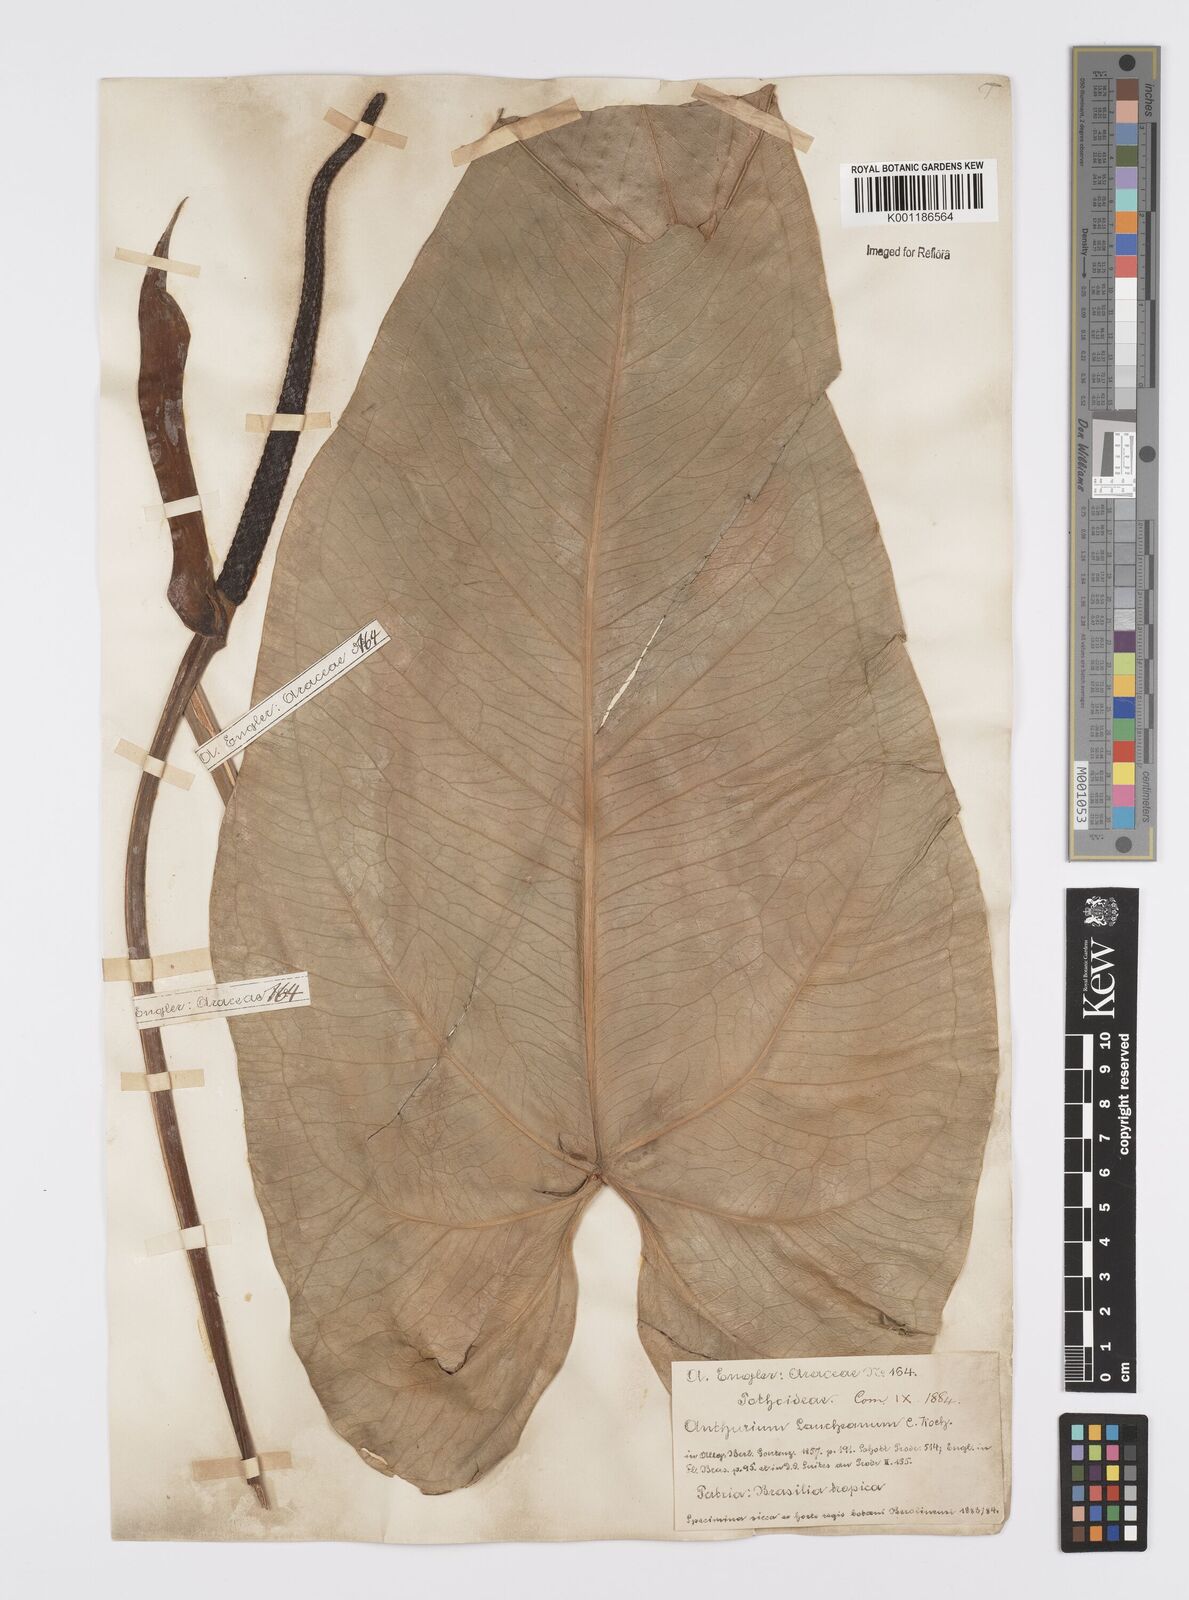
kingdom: Plantae
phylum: Tracheophyta
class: Liliopsida
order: Alismatales
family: Araceae
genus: Anthurium
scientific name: Anthurium augustinum
